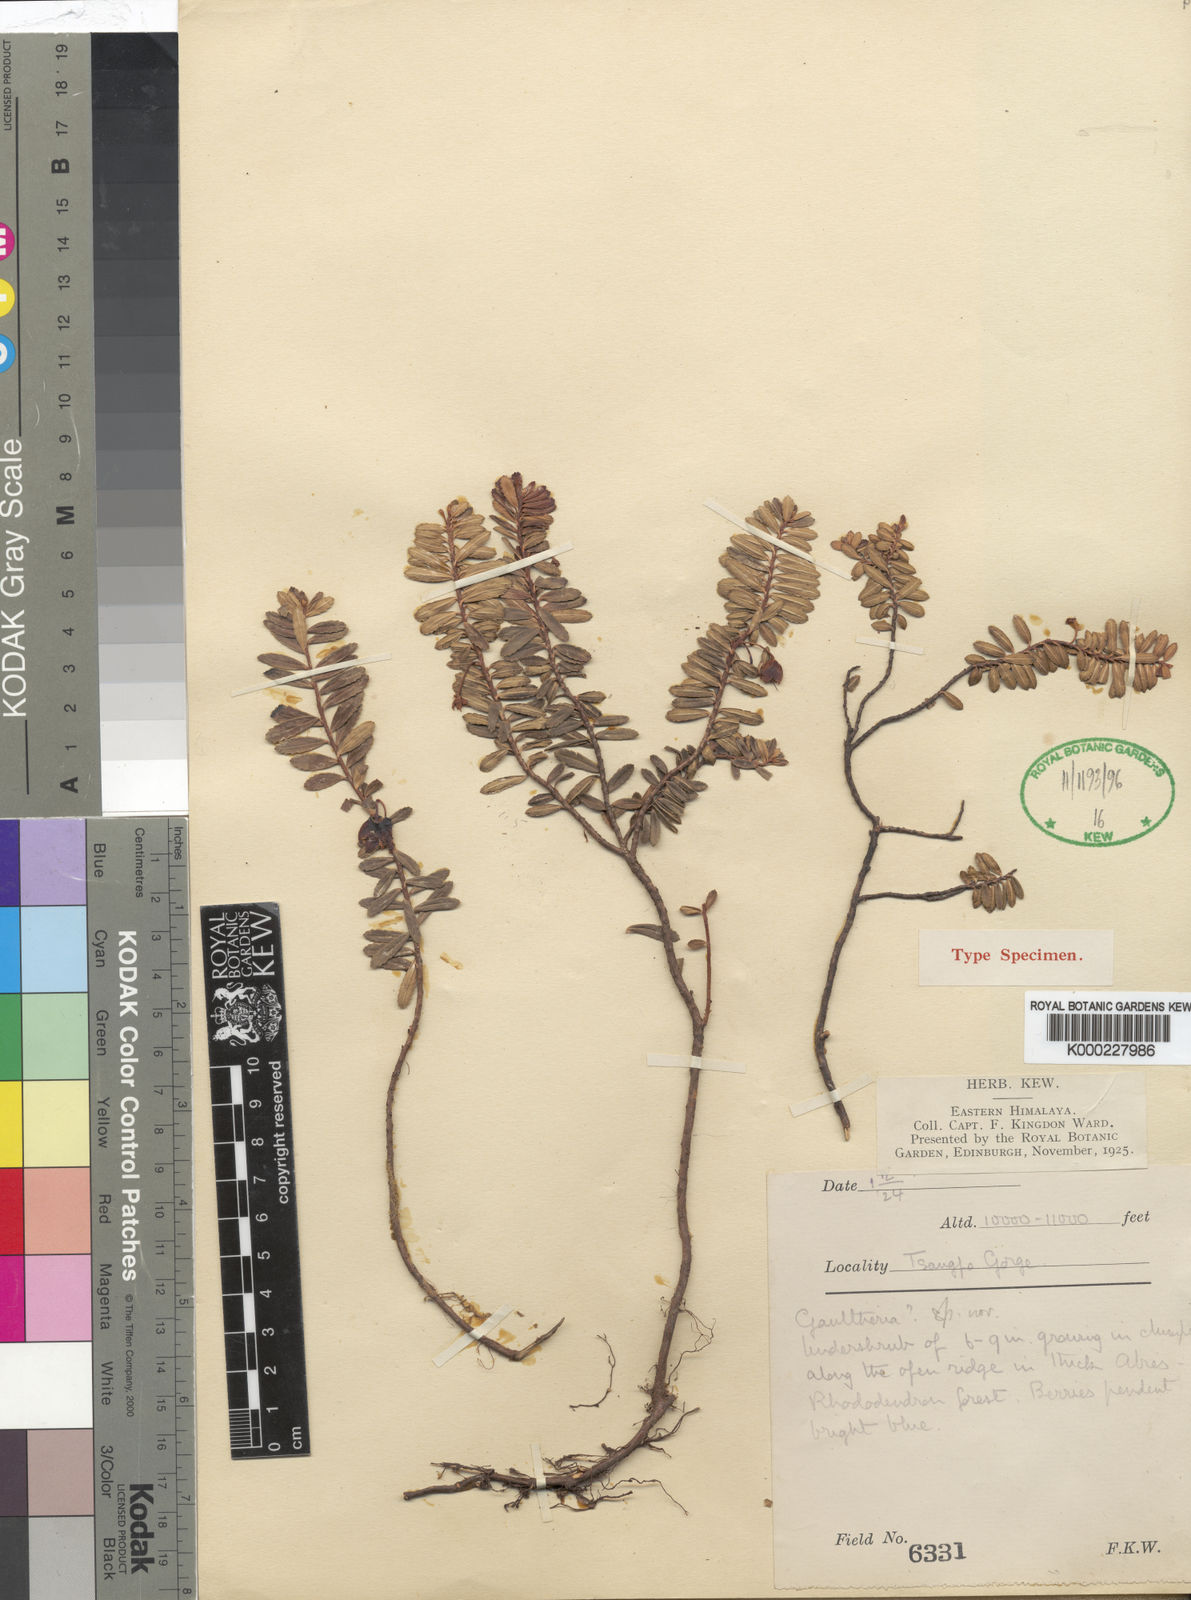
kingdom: Plantae
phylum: Tracheophyta
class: Magnoliopsida
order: Ericales
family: Ericaceae
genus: Gaultheria
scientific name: Gaultheria dolichopoda
